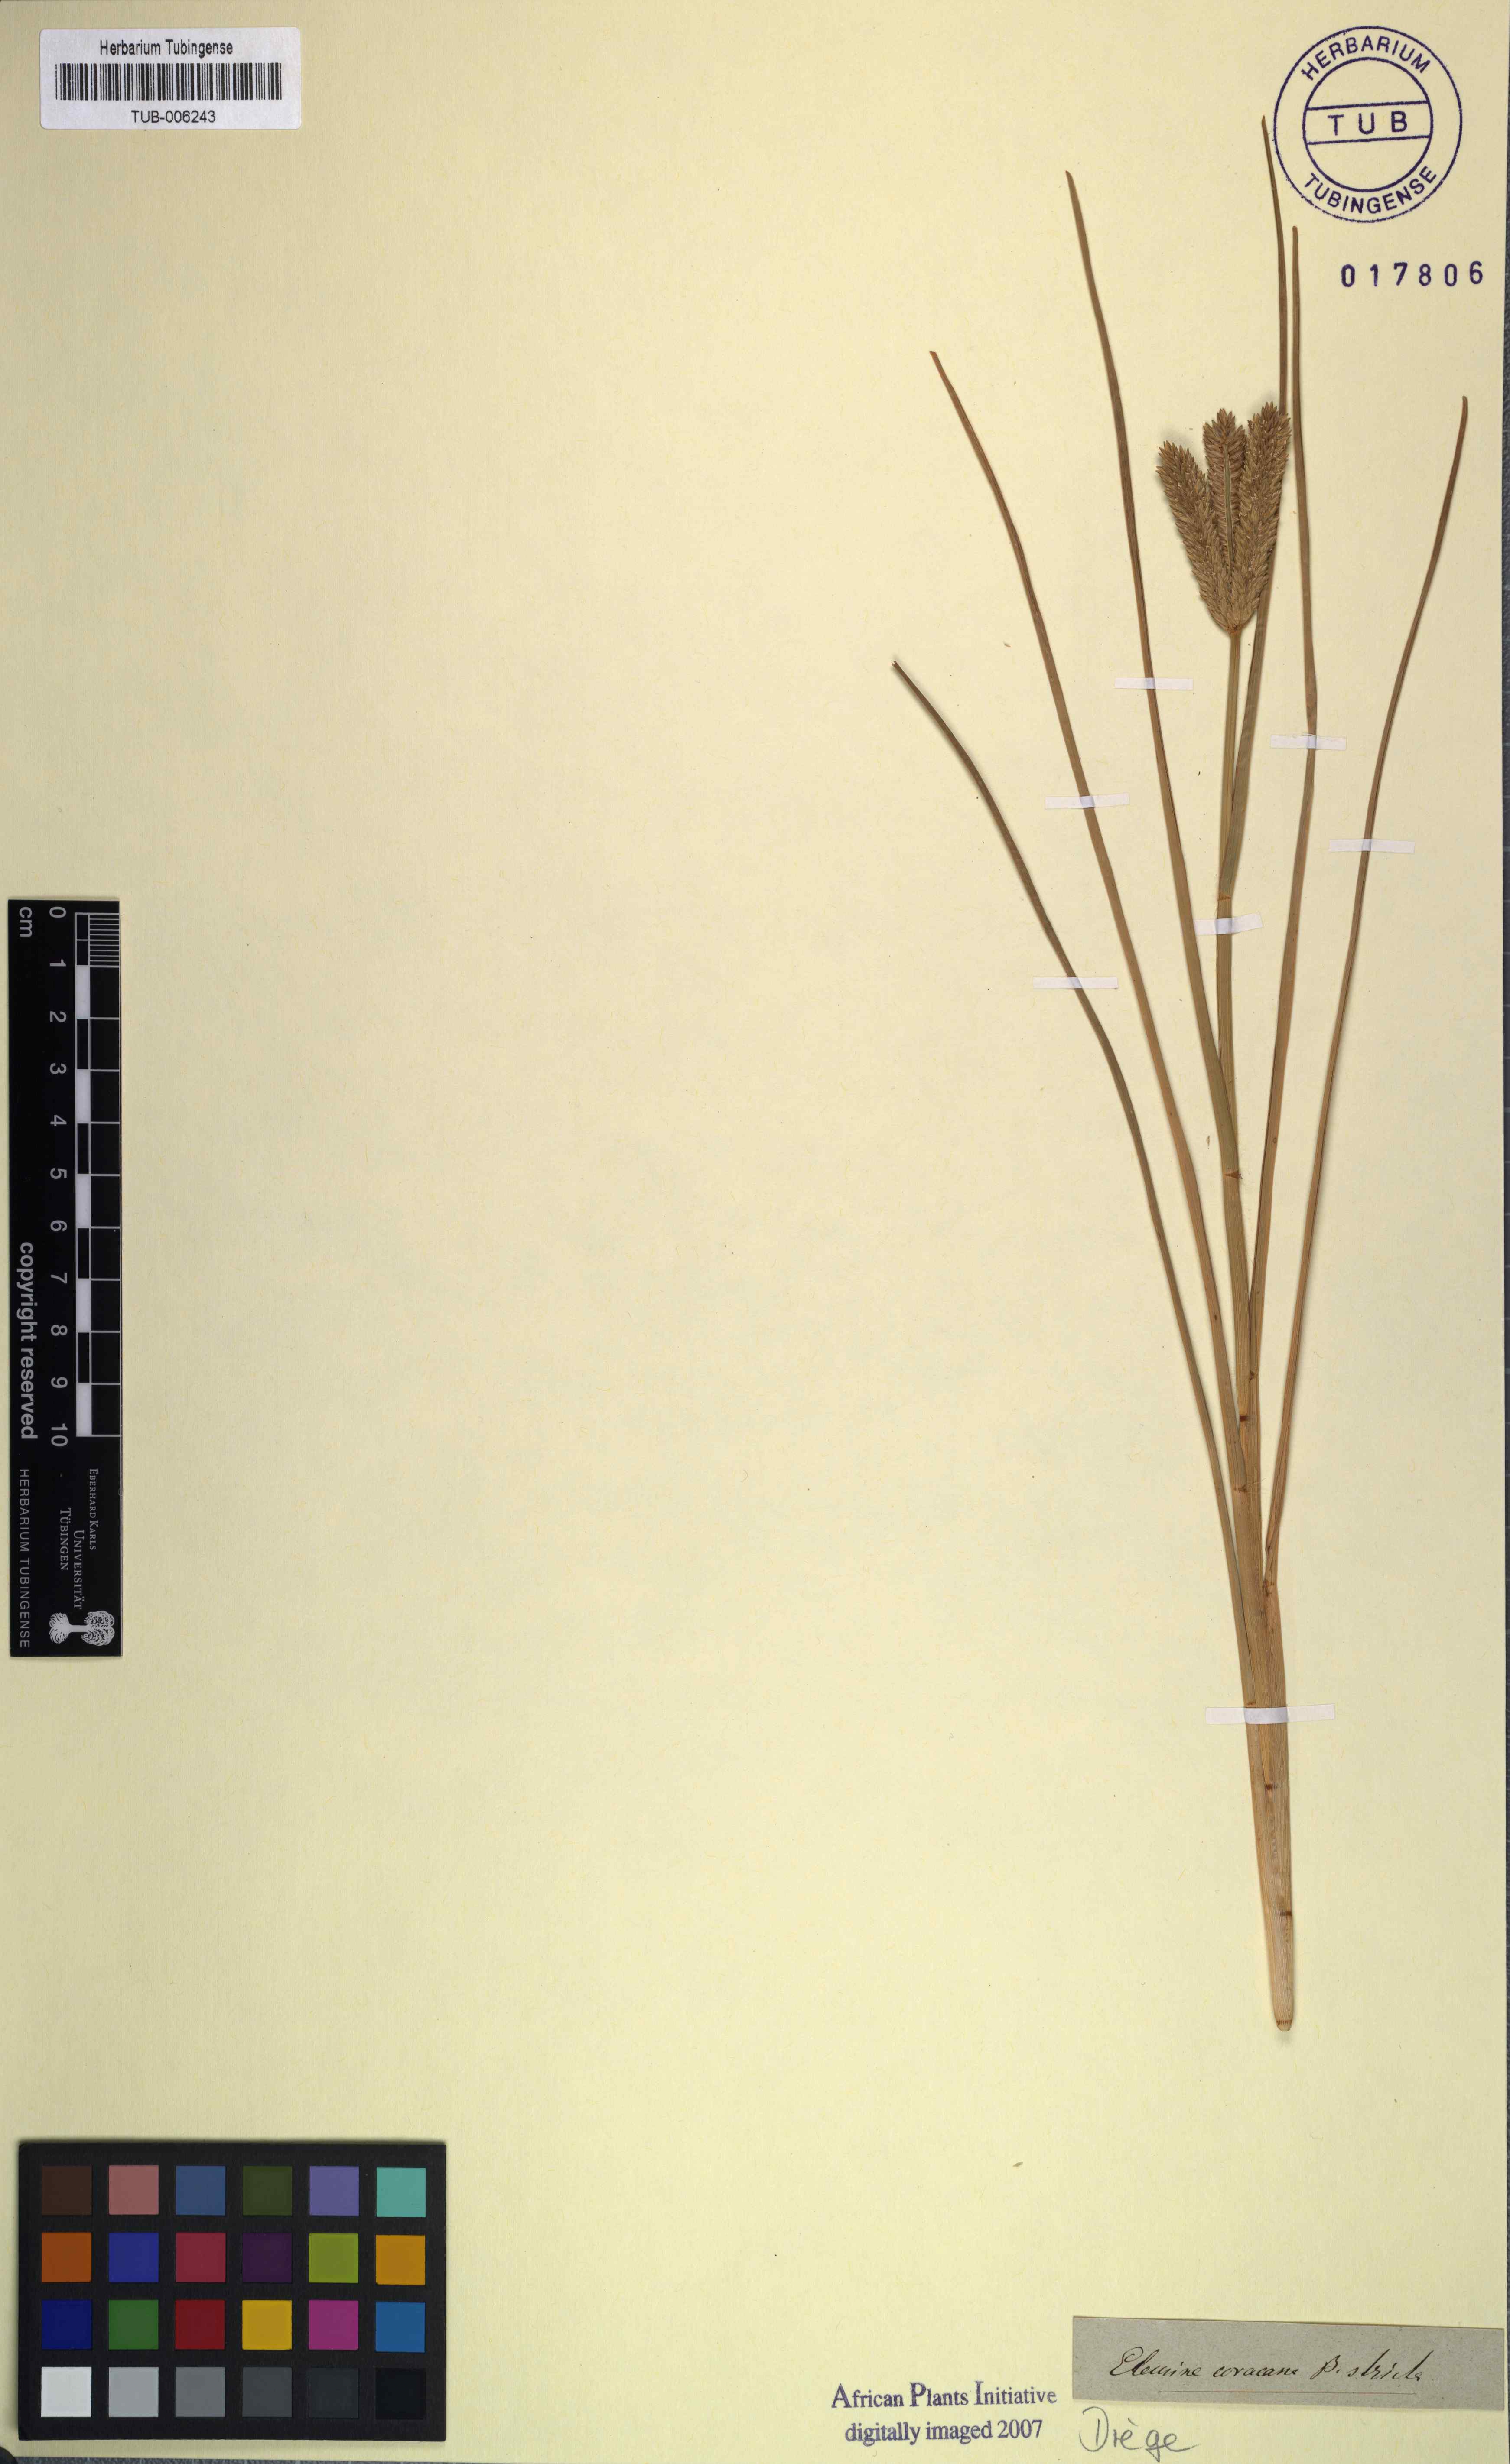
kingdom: Plantae
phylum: Tracheophyta
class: Liliopsida
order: Poales
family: Poaceae
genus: Eleusine
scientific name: Eleusine coracana
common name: Finger millet
